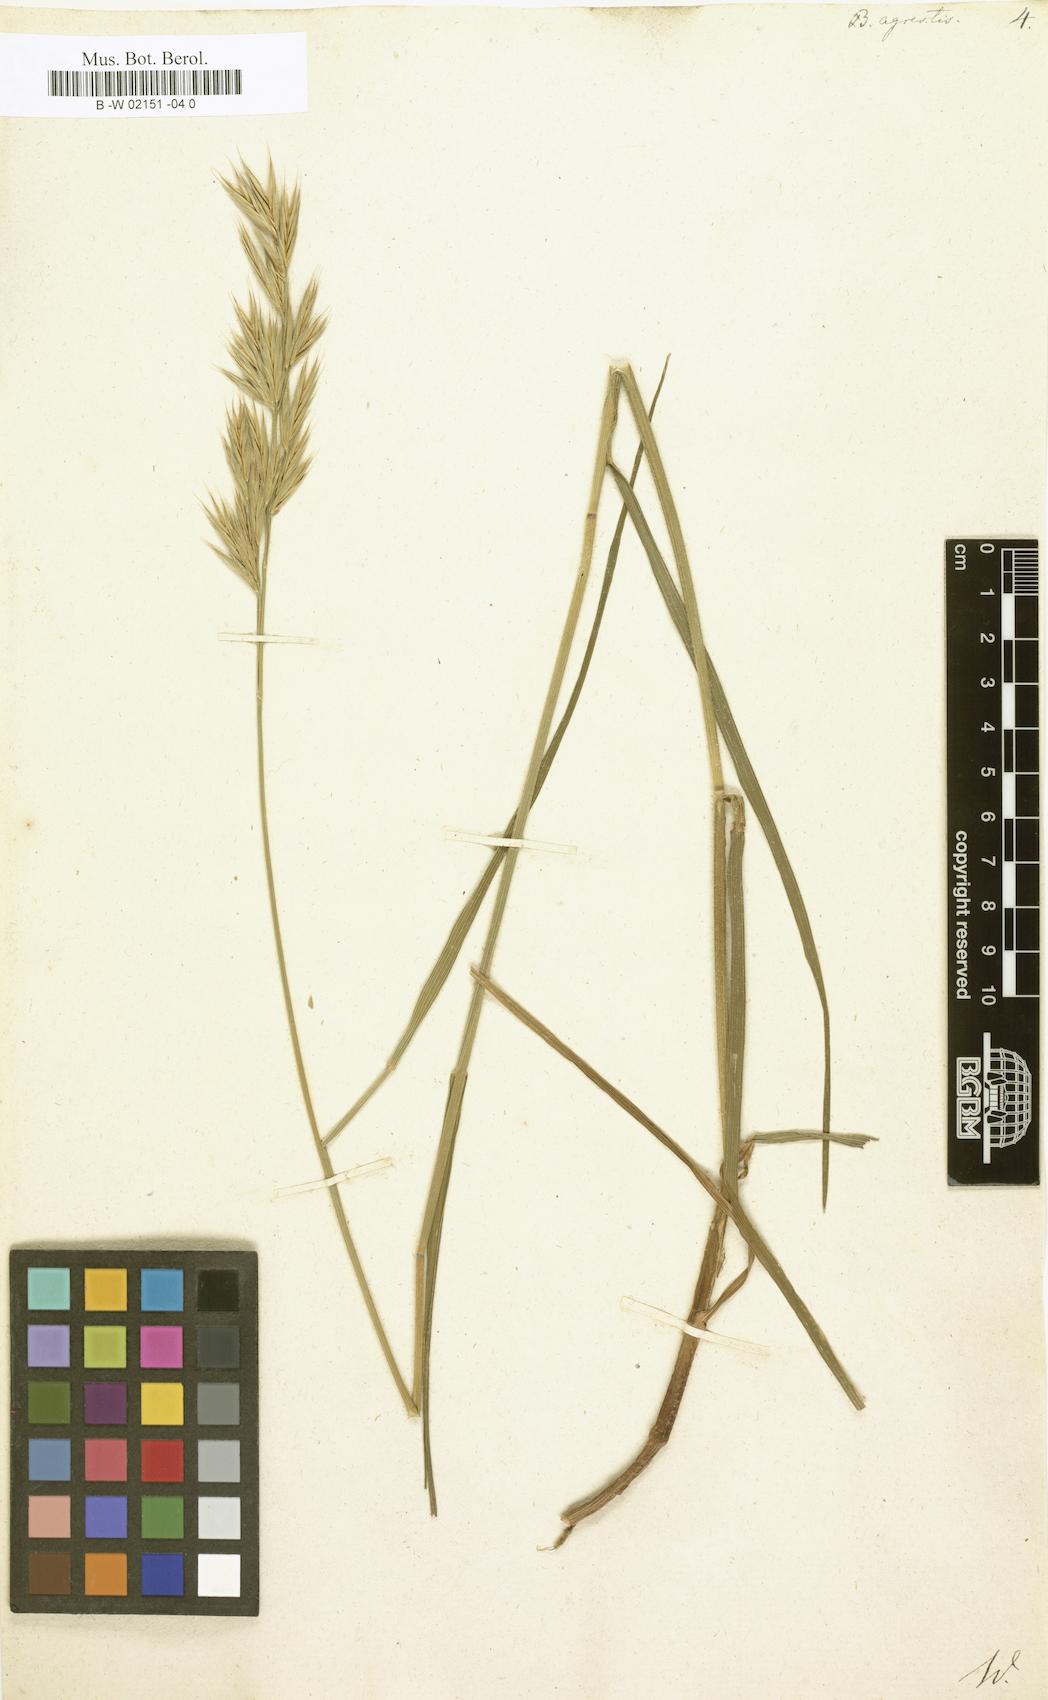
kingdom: Plantae
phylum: Tracheophyta
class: Liliopsida
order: Poales
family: Poaceae
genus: Bromus
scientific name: Bromus erectus
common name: Erect brome
